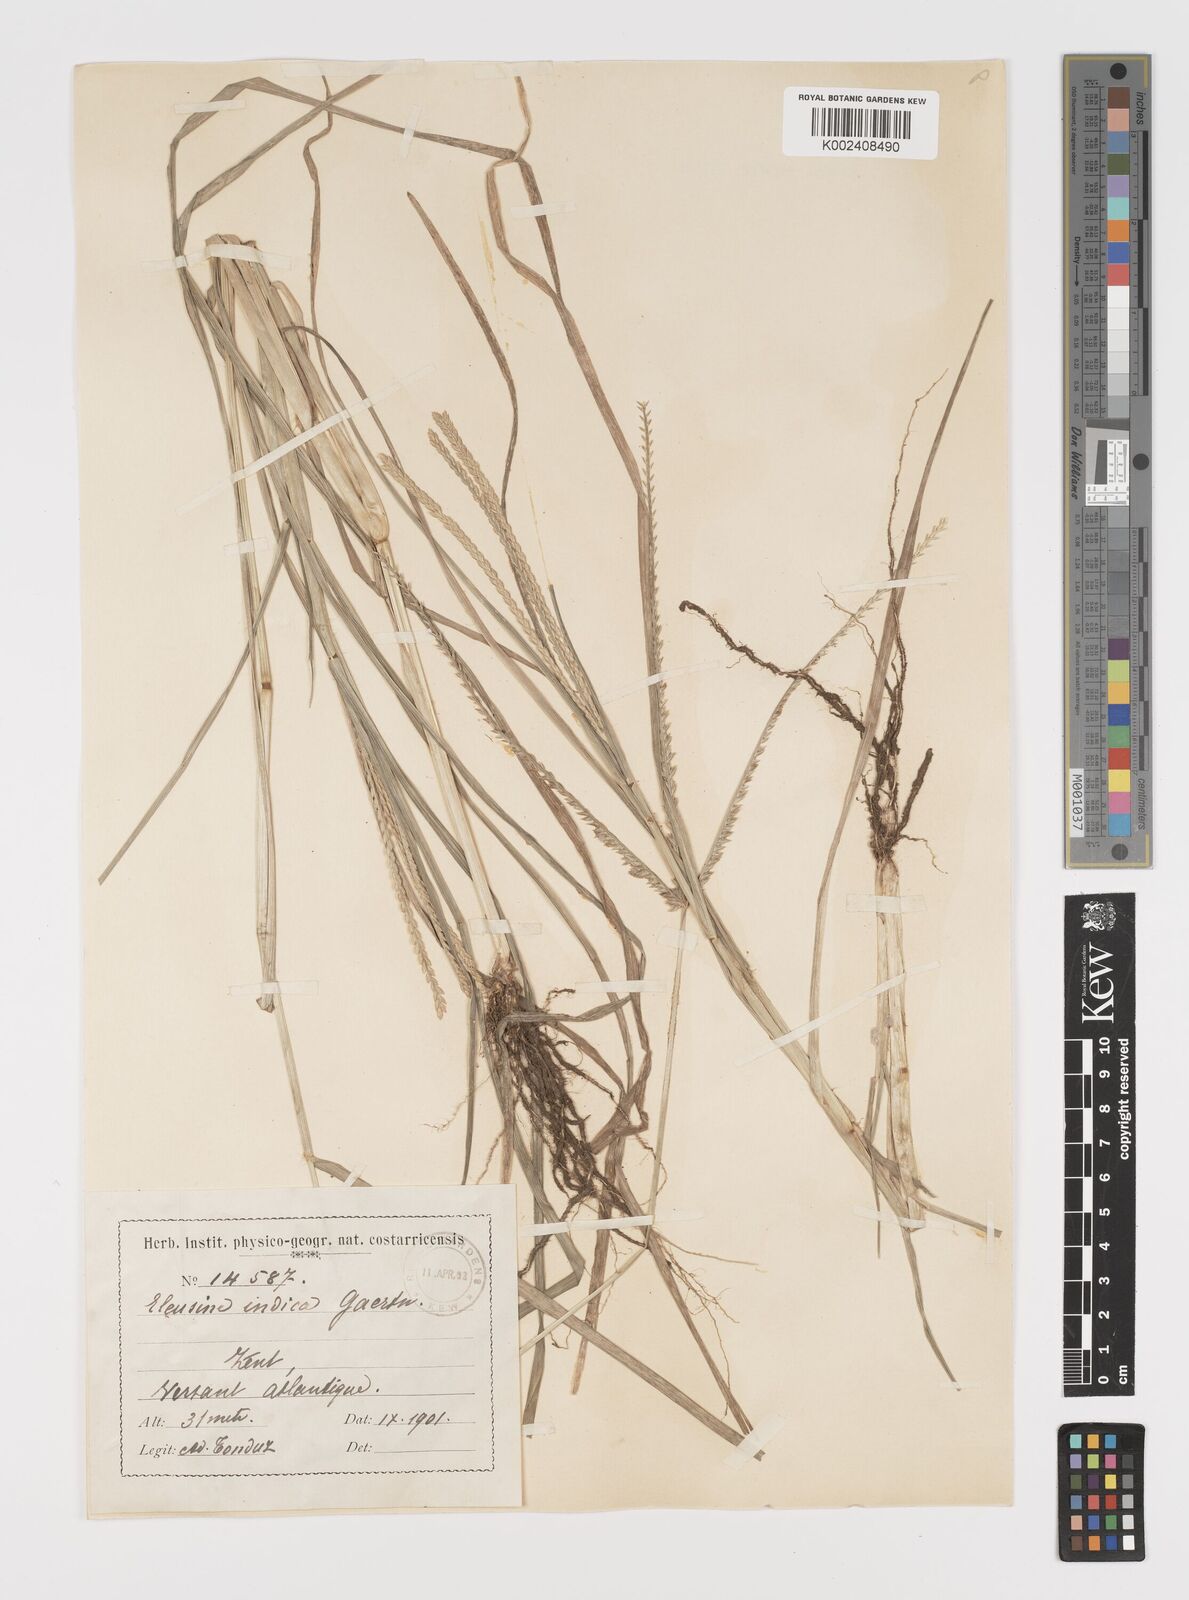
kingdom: Plantae
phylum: Tracheophyta
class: Liliopsida
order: Poales
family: Poaceae
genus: Eleusine
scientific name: Eleusine indica
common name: Yard-grass
